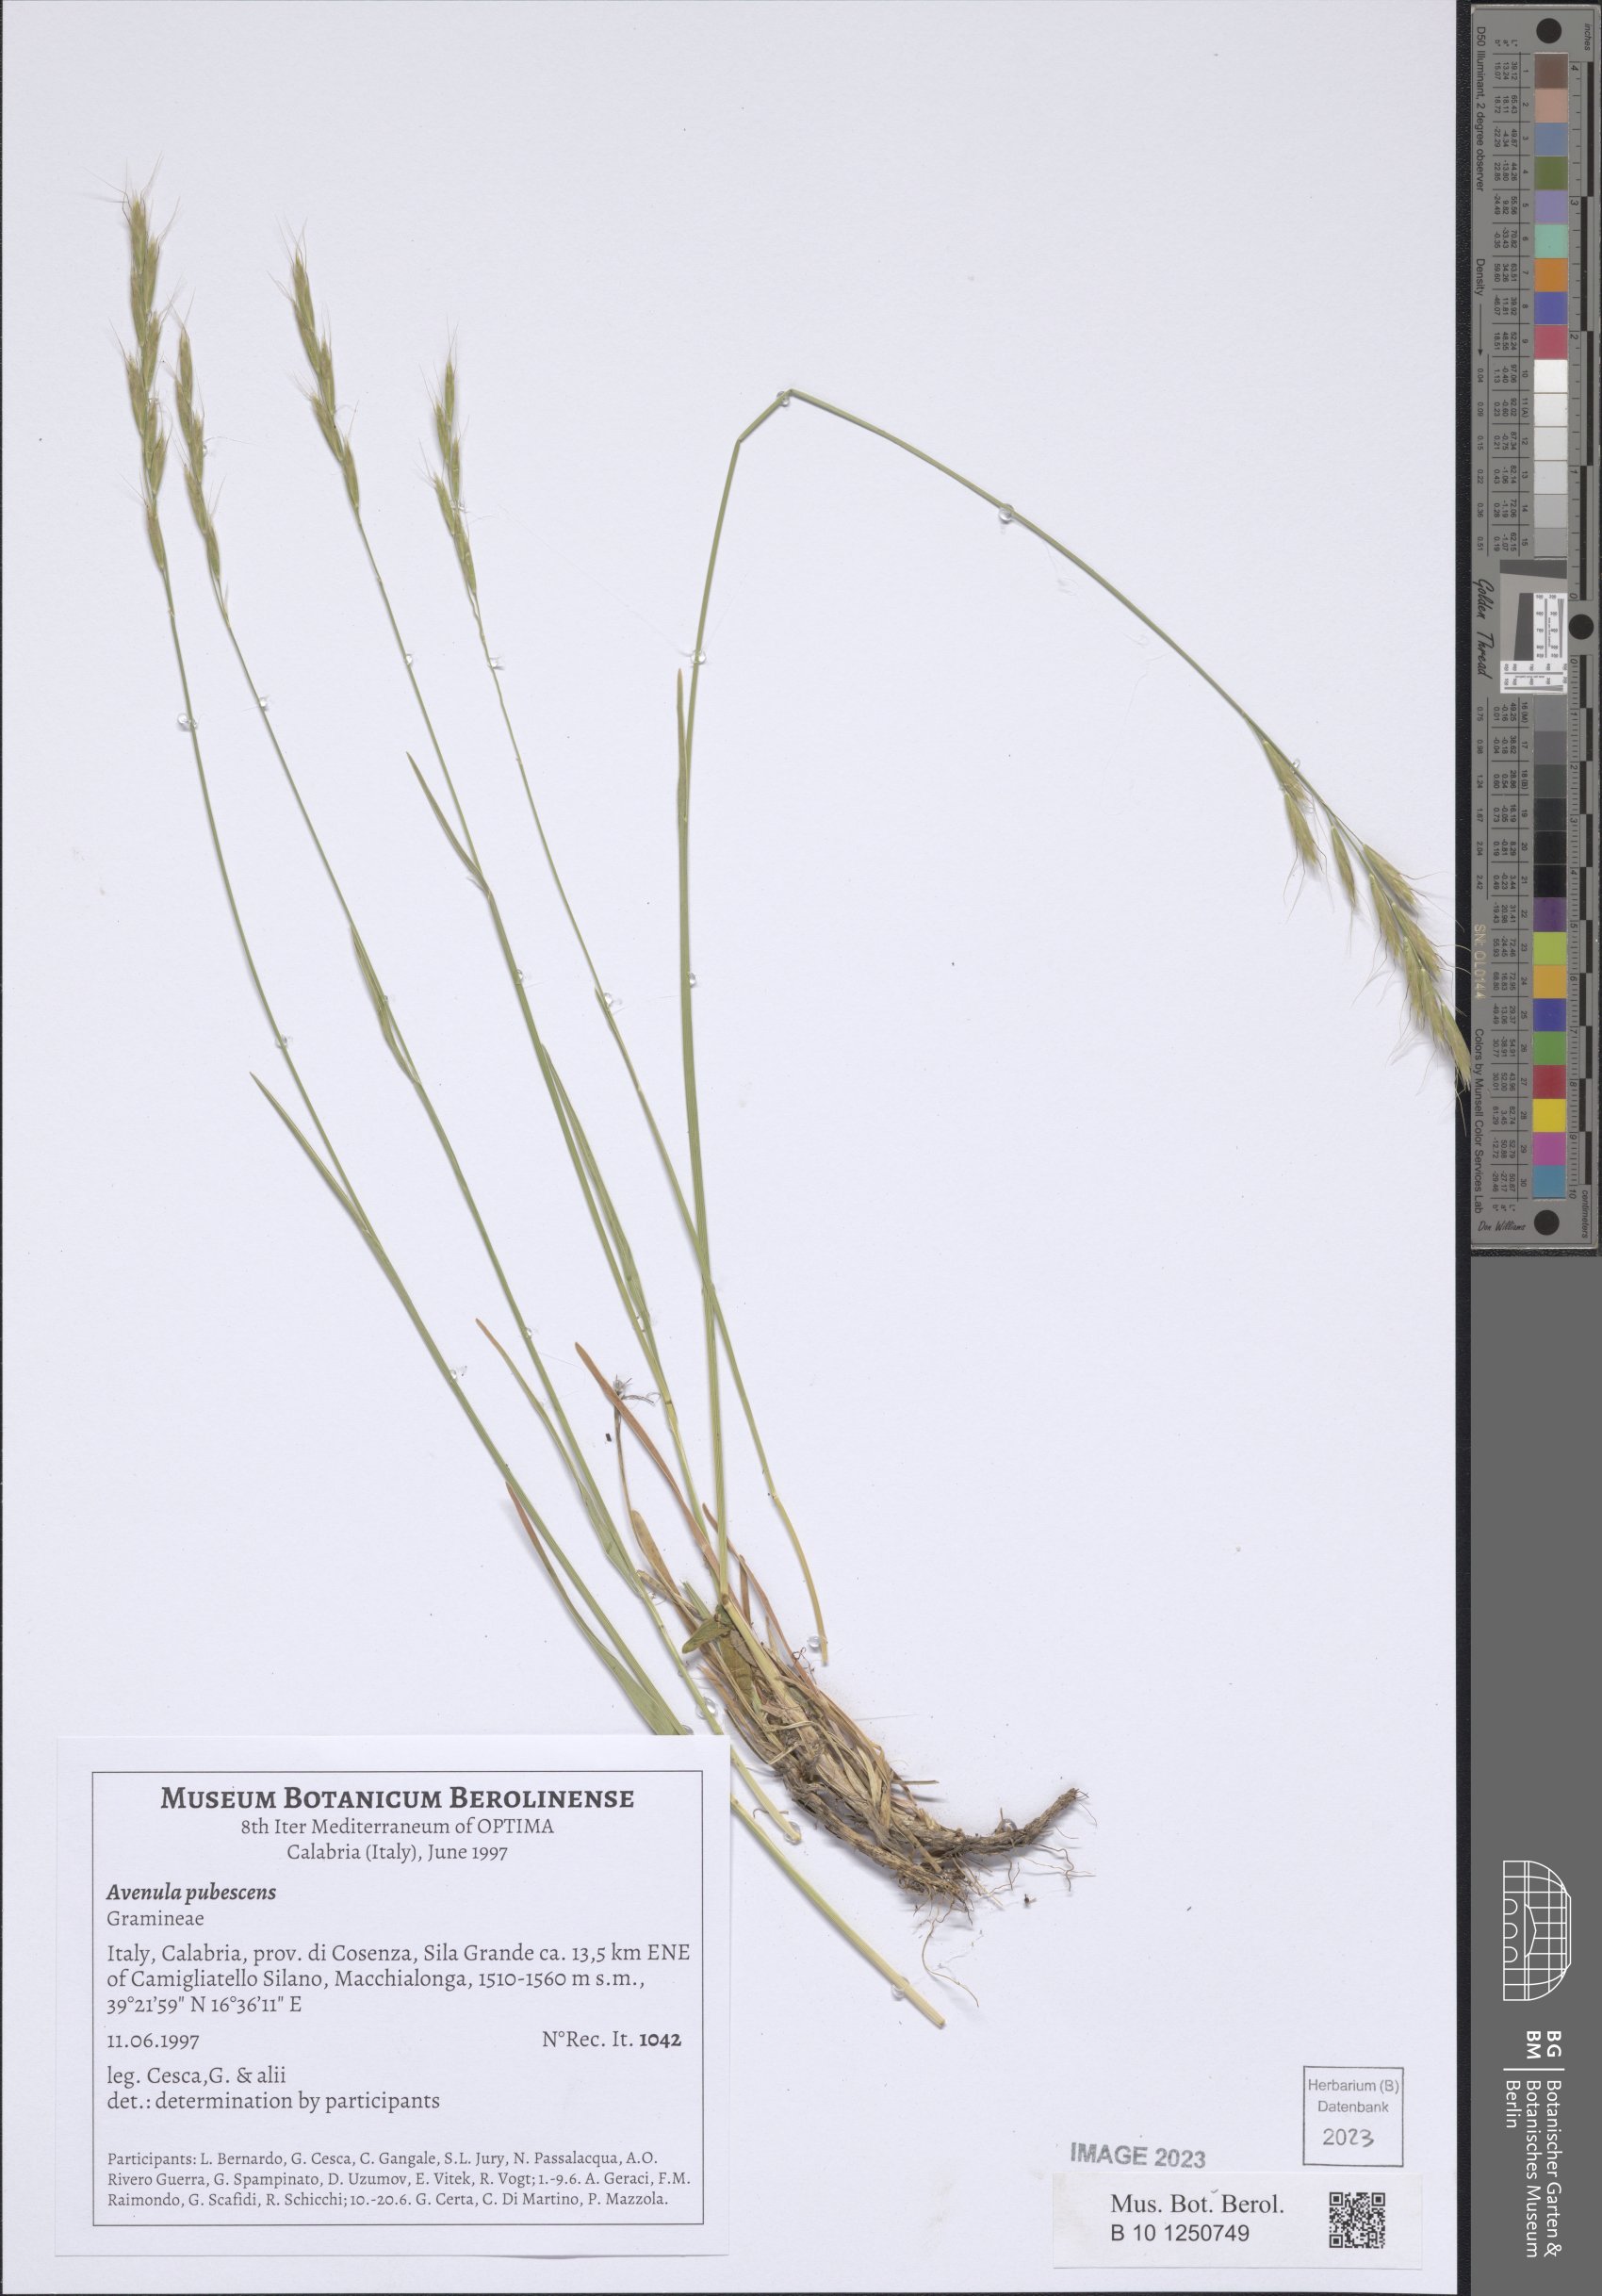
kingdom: Plantae
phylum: Tracheophyta
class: Liliopsida
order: Poales
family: Poaceae
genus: Avenula
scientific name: Avenula pubescens
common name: Downy alpine oatgrass
